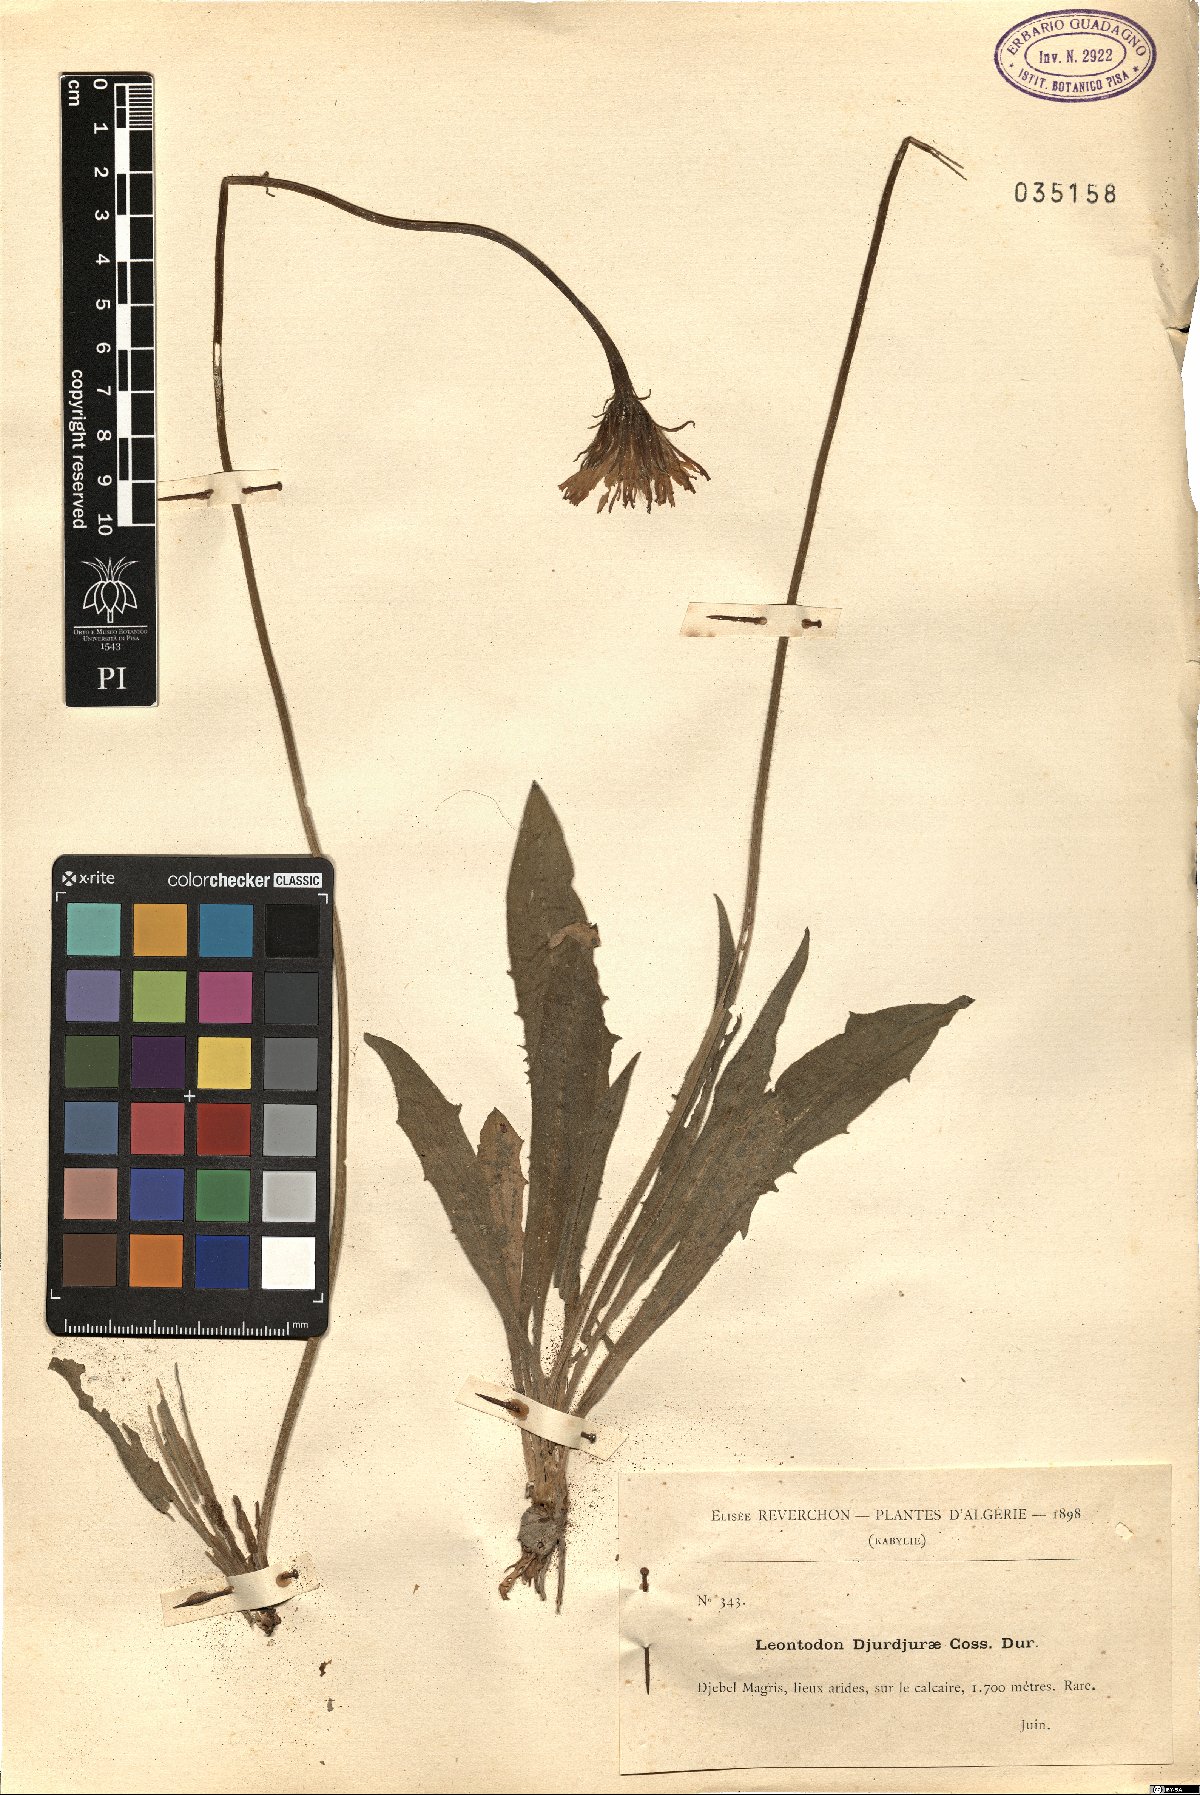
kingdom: Plantae
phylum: Tracheophyta
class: Magnoliopsida
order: Asterales
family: Asteraceae
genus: Leontodon
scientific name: Leontodon djurdjurae
